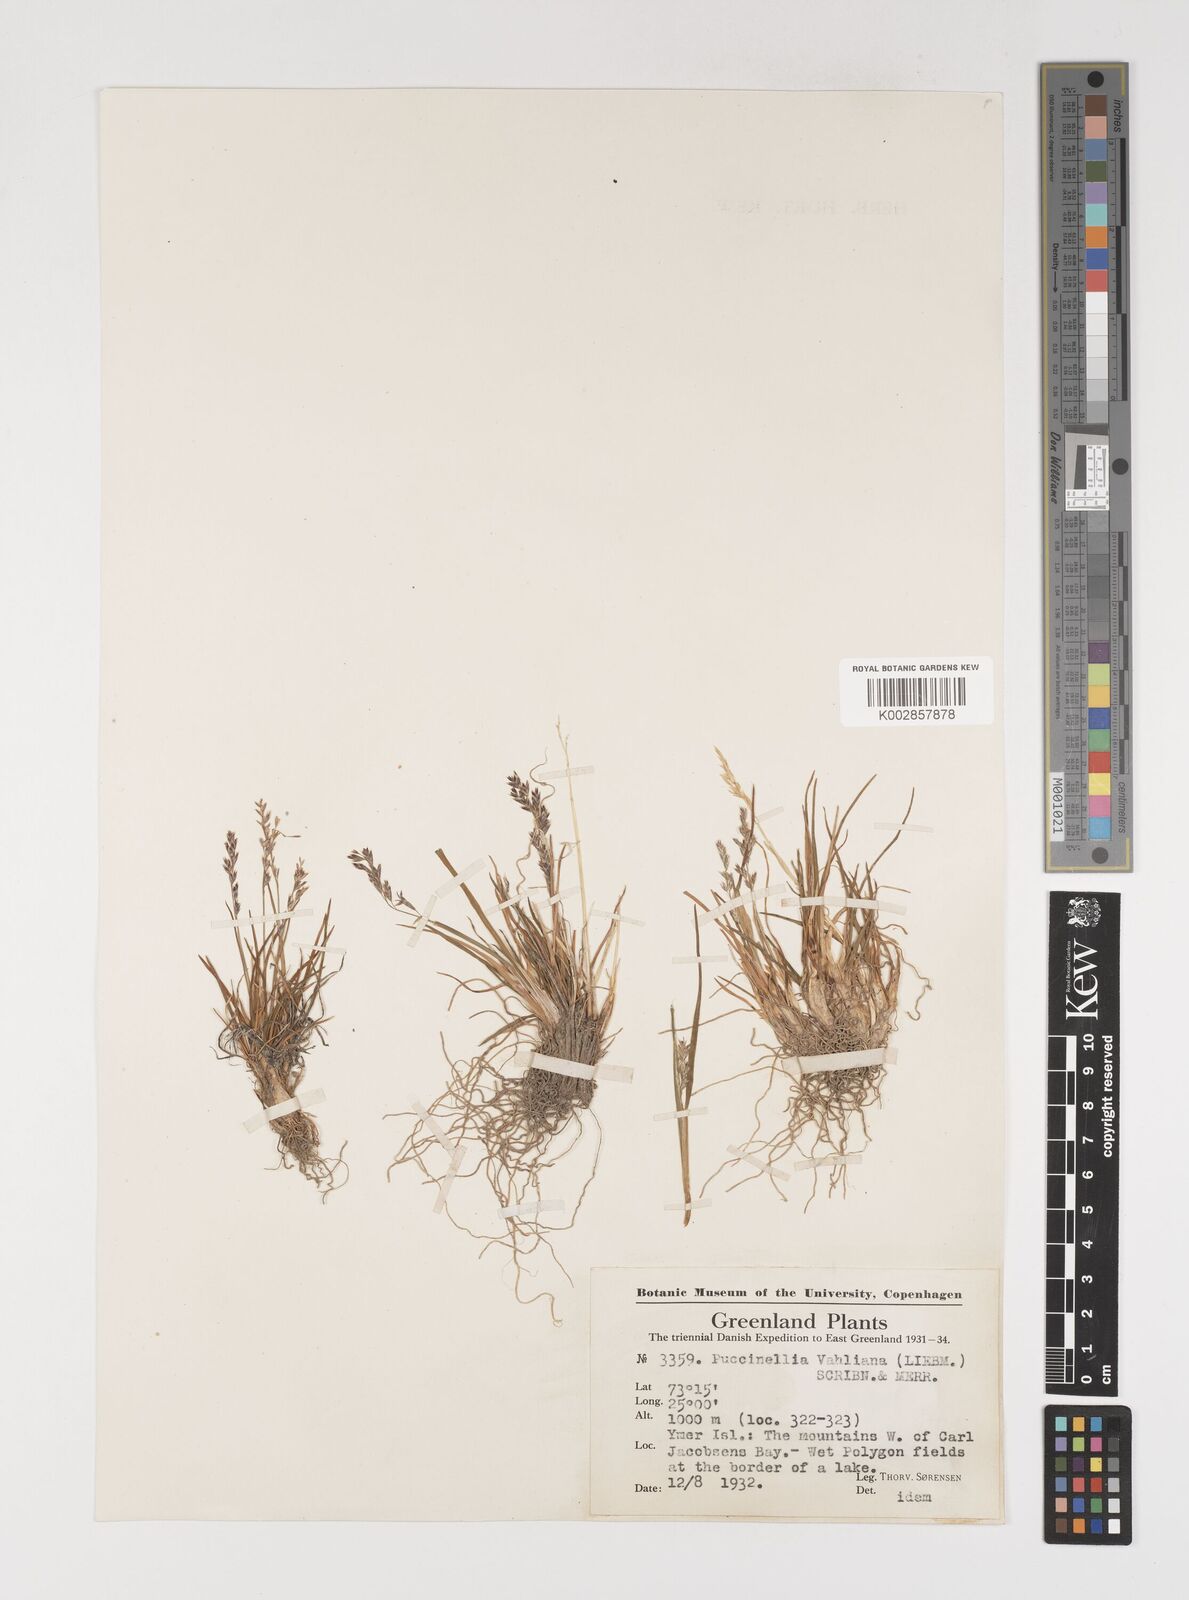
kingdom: Plantae
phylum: Tracheophyta
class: Liliopsida
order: Poales
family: Poaceae
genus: Puccinellia
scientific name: Puccinellia vahliana
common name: Vahl's alkaligrass
